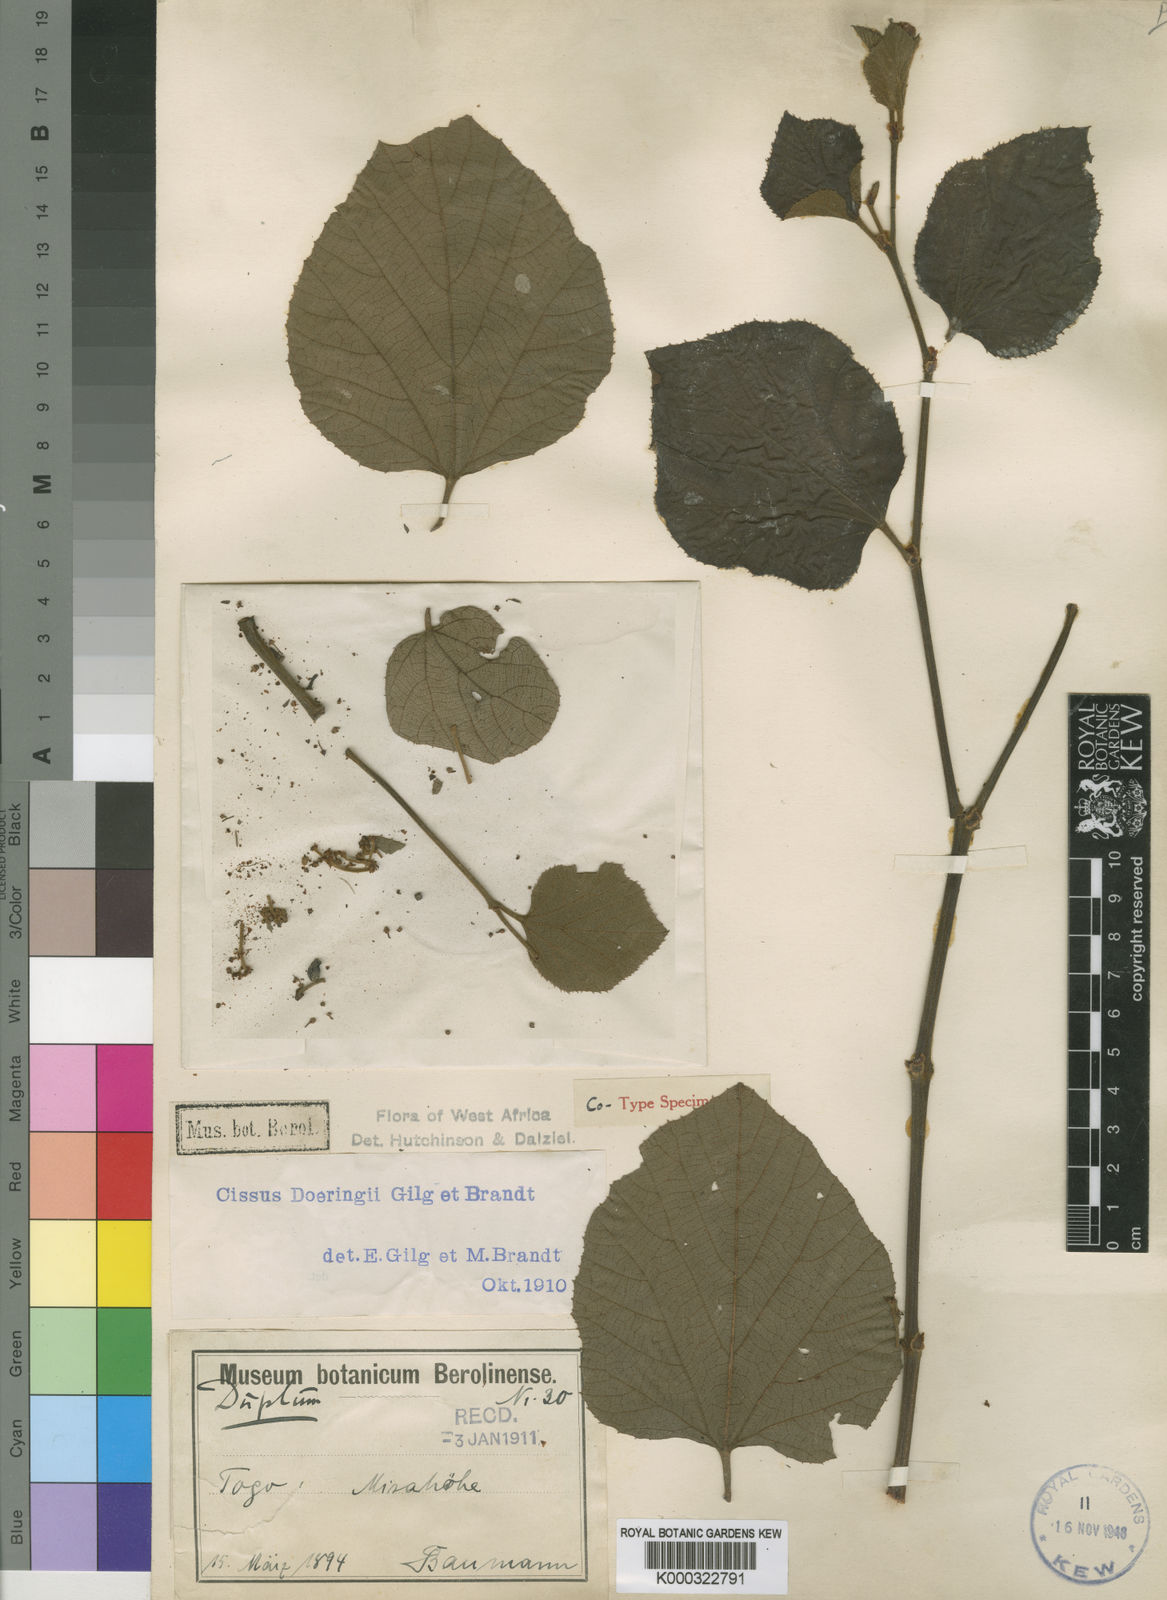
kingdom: Plantae
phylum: Tracheophyta
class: Magnoliopsida
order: Vitales
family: Vitaceae
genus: Cissus
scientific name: Cissus doeringii
